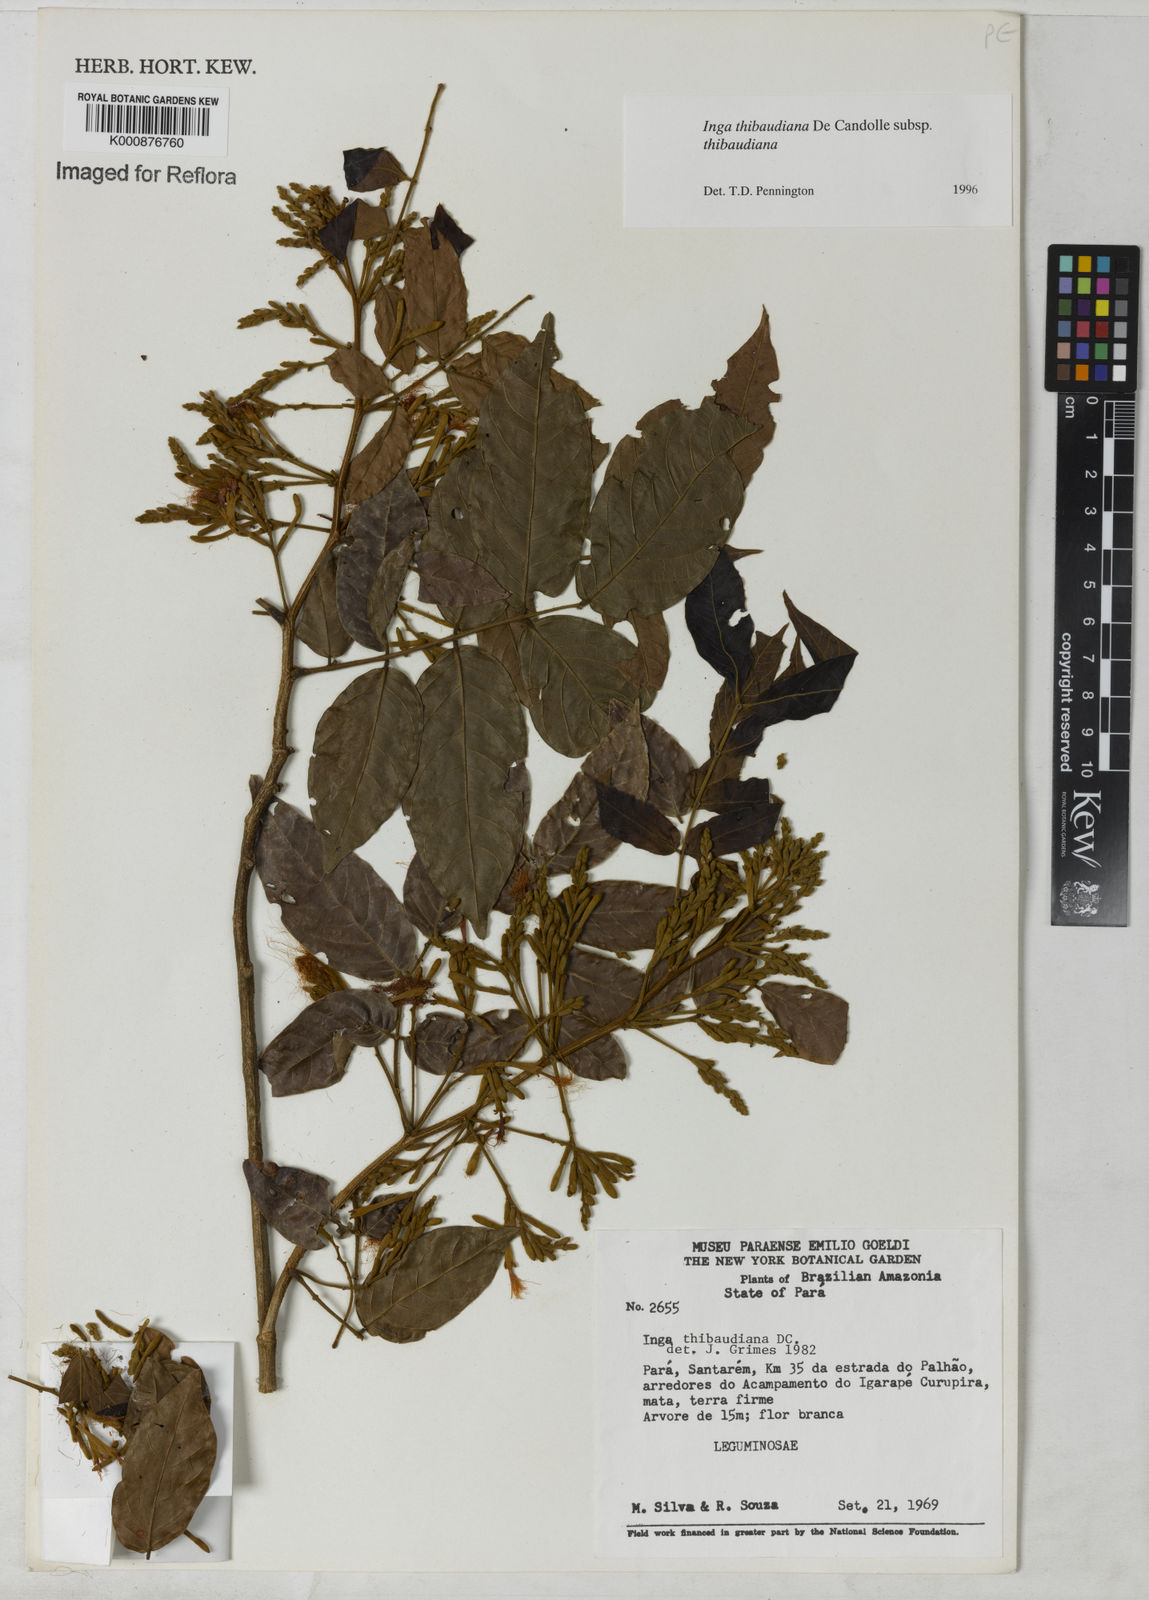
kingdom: Plantae
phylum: Tracheophyta
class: Magnoliopsida
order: Fabales
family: Fabaceae
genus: Inga
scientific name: Inga thibaudiana
